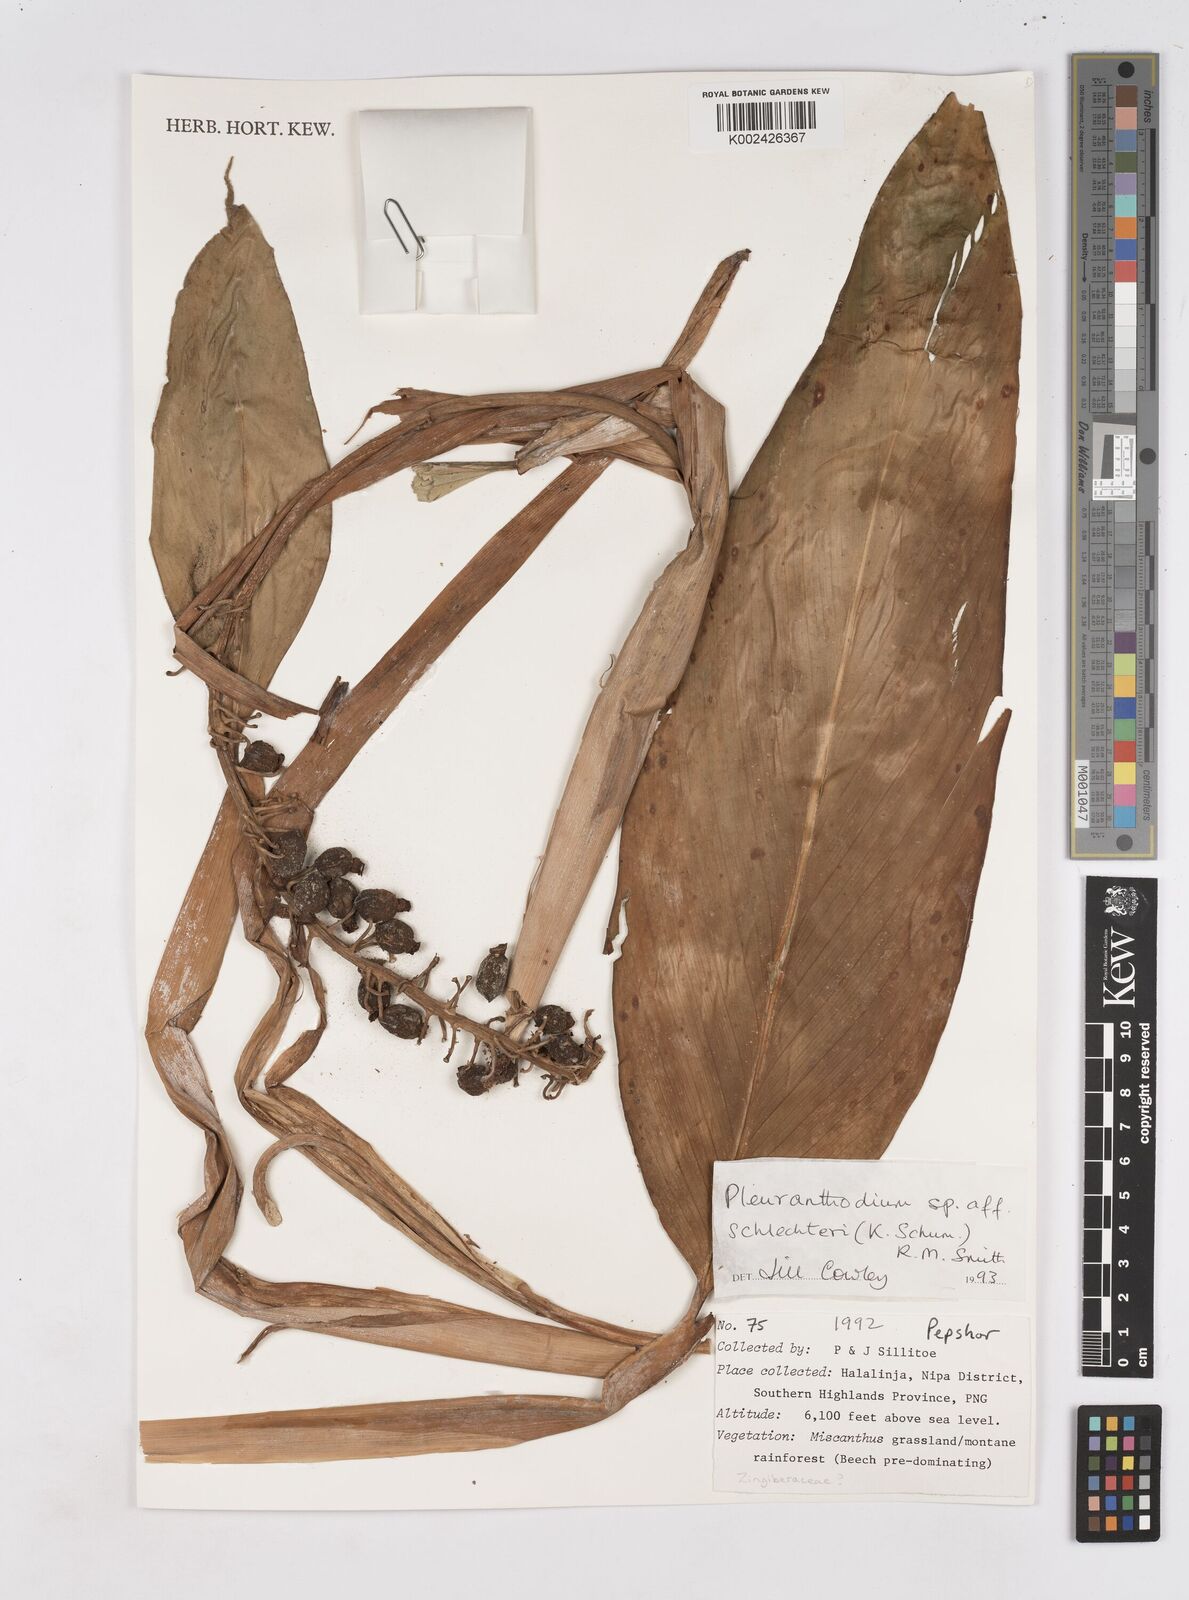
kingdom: Plantae
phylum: Tracheophyta
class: Liliopsida
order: Zingiberales
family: Zingiberaceae
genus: Pleuranthodium
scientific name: Pleuranthodium schlechteri
